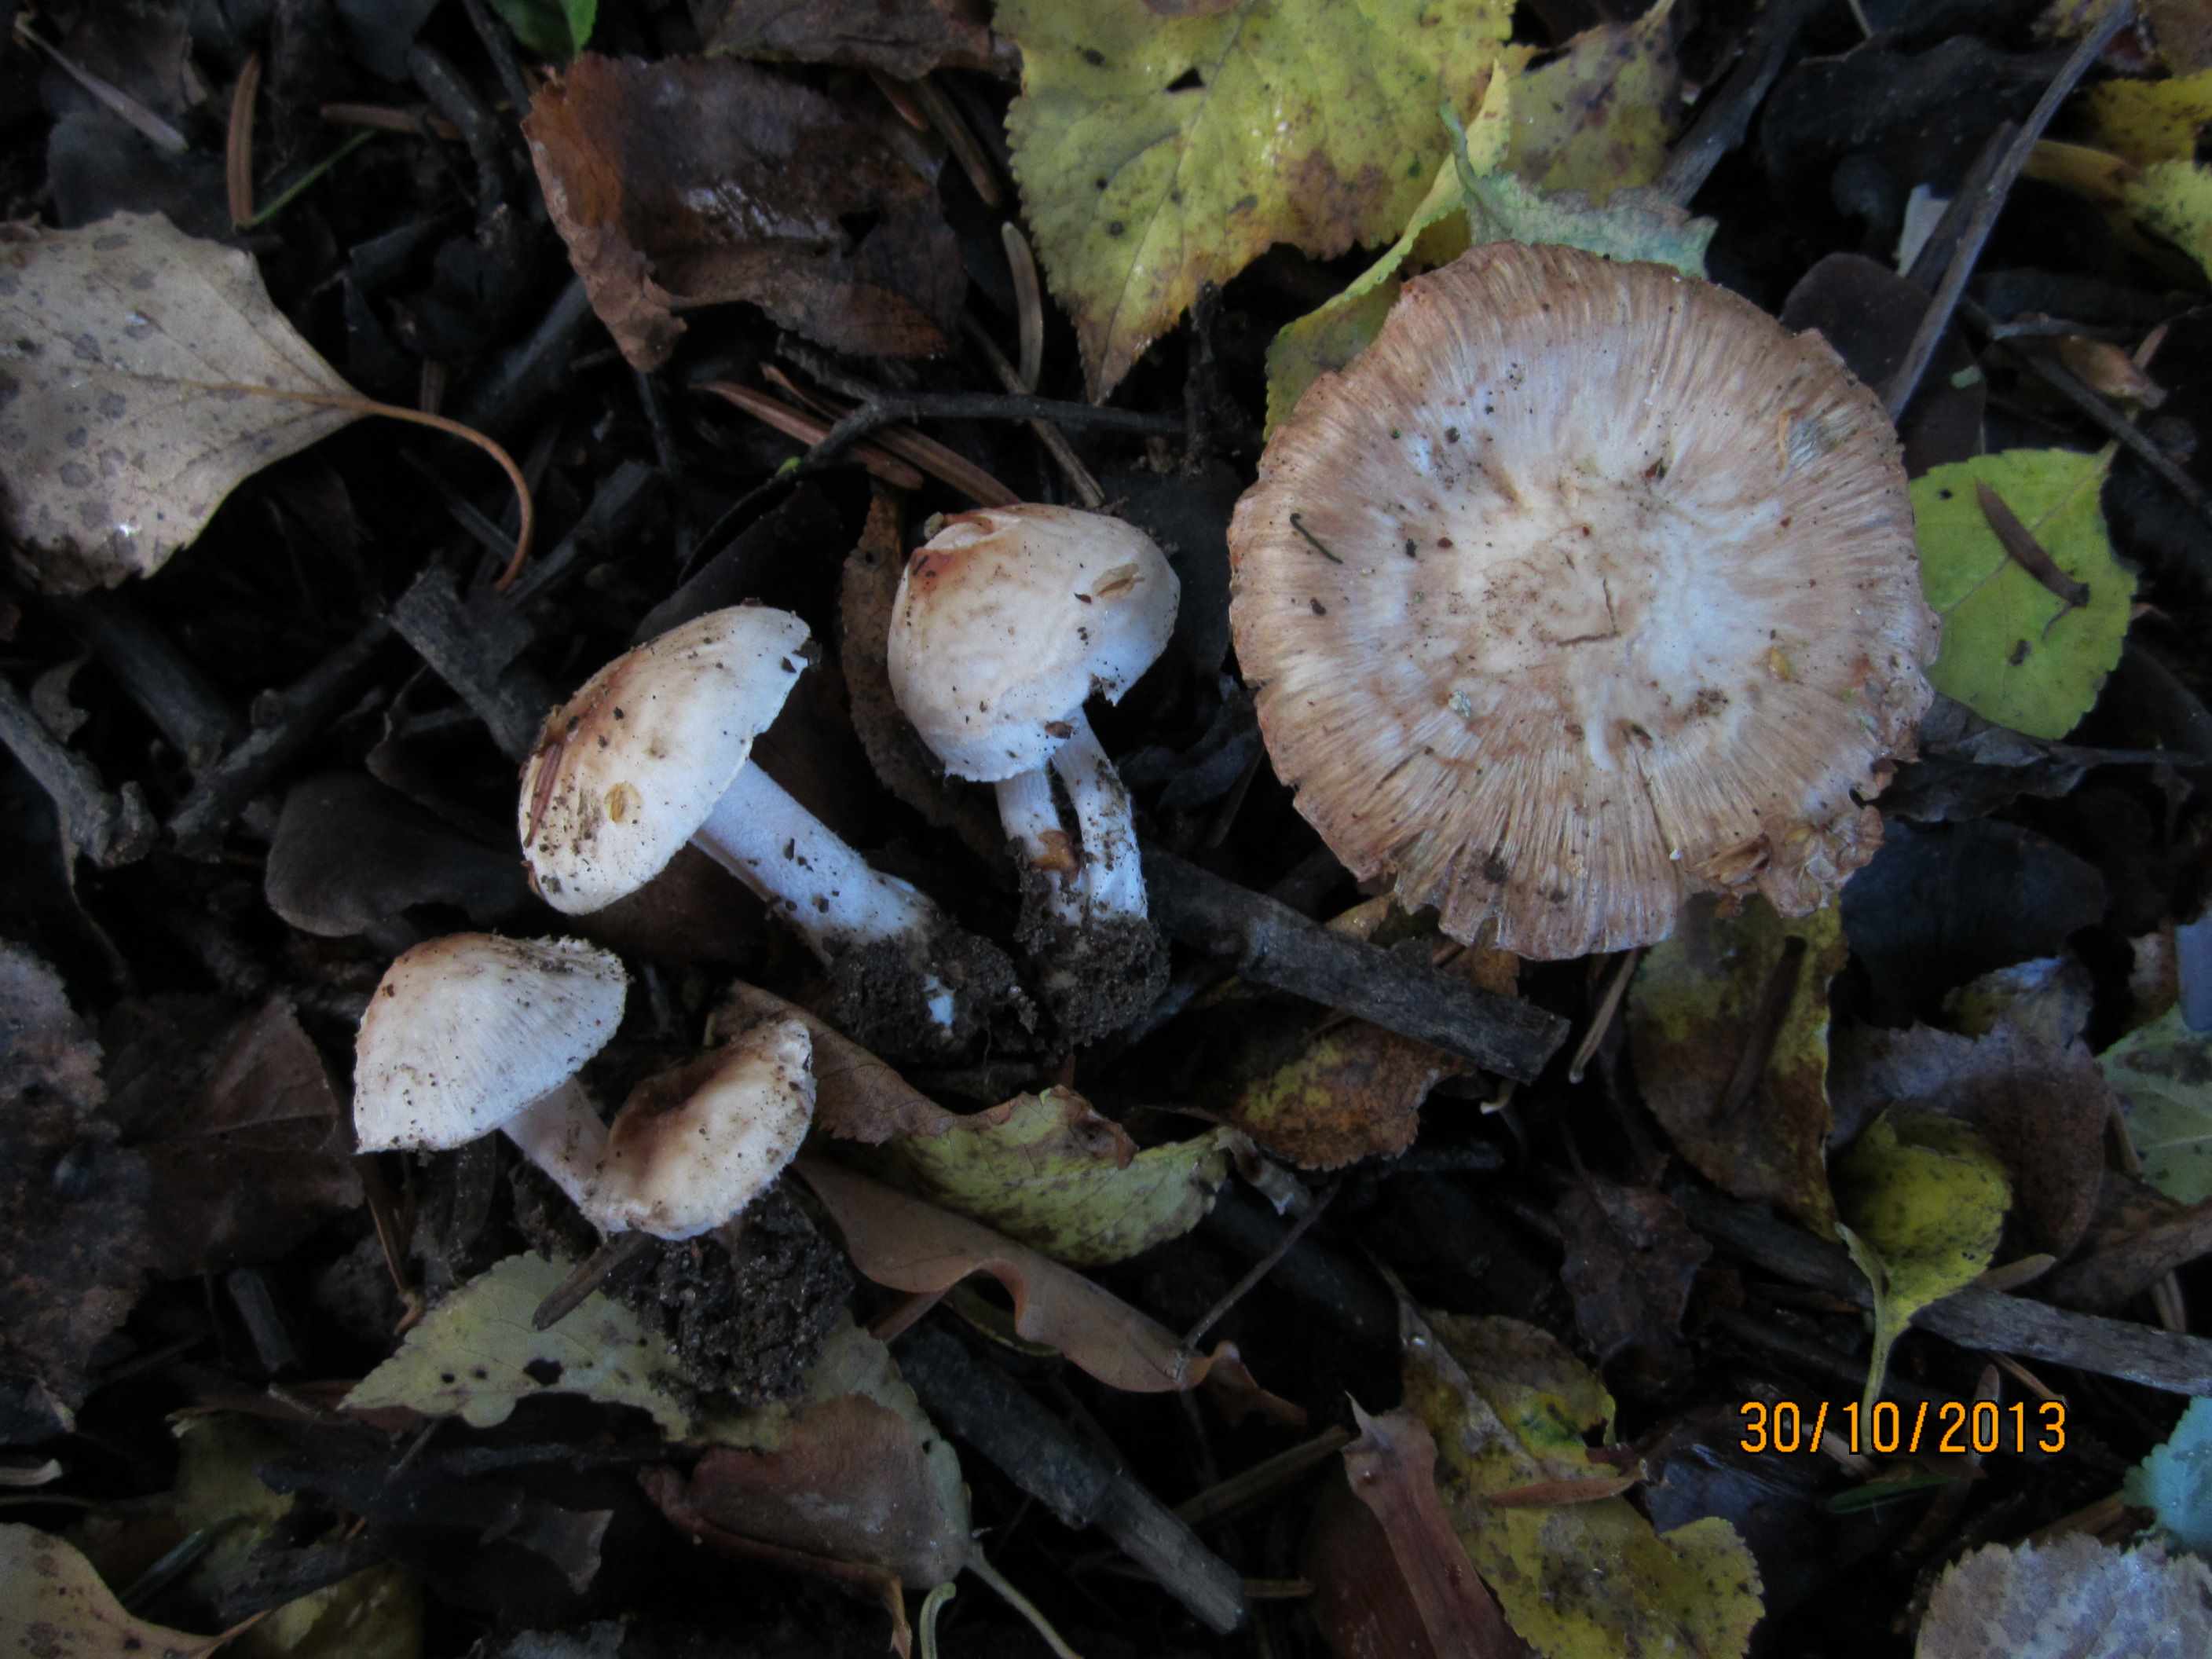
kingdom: Fungi
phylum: Basidiomycota
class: Agaricomycetes
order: Agaricales
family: Inocybaceae
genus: Inocybe
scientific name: Inocybe
